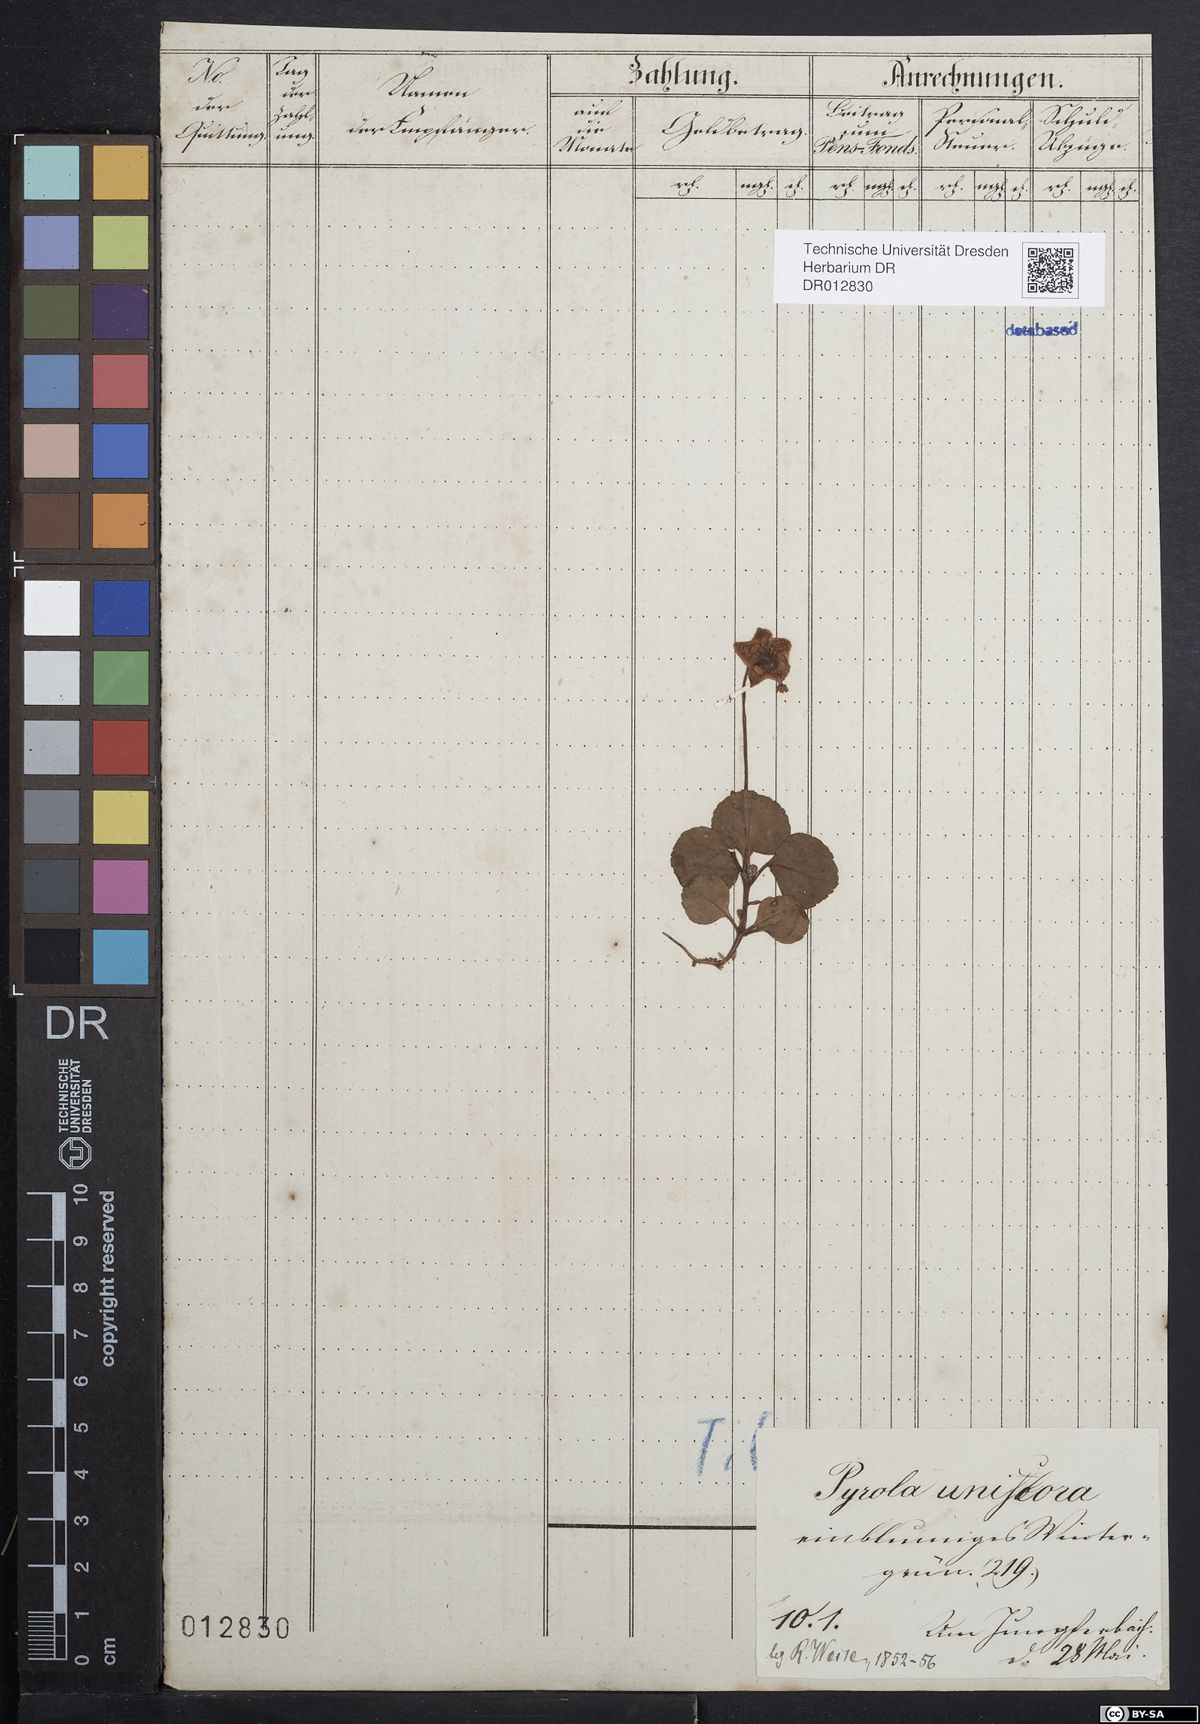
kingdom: Plantae
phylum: Tracheophyta
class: Magnoliopsida
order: Ericales
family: Ericaceae
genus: Moneses
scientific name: Moneses uniflora
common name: One-flowered wintergreen
